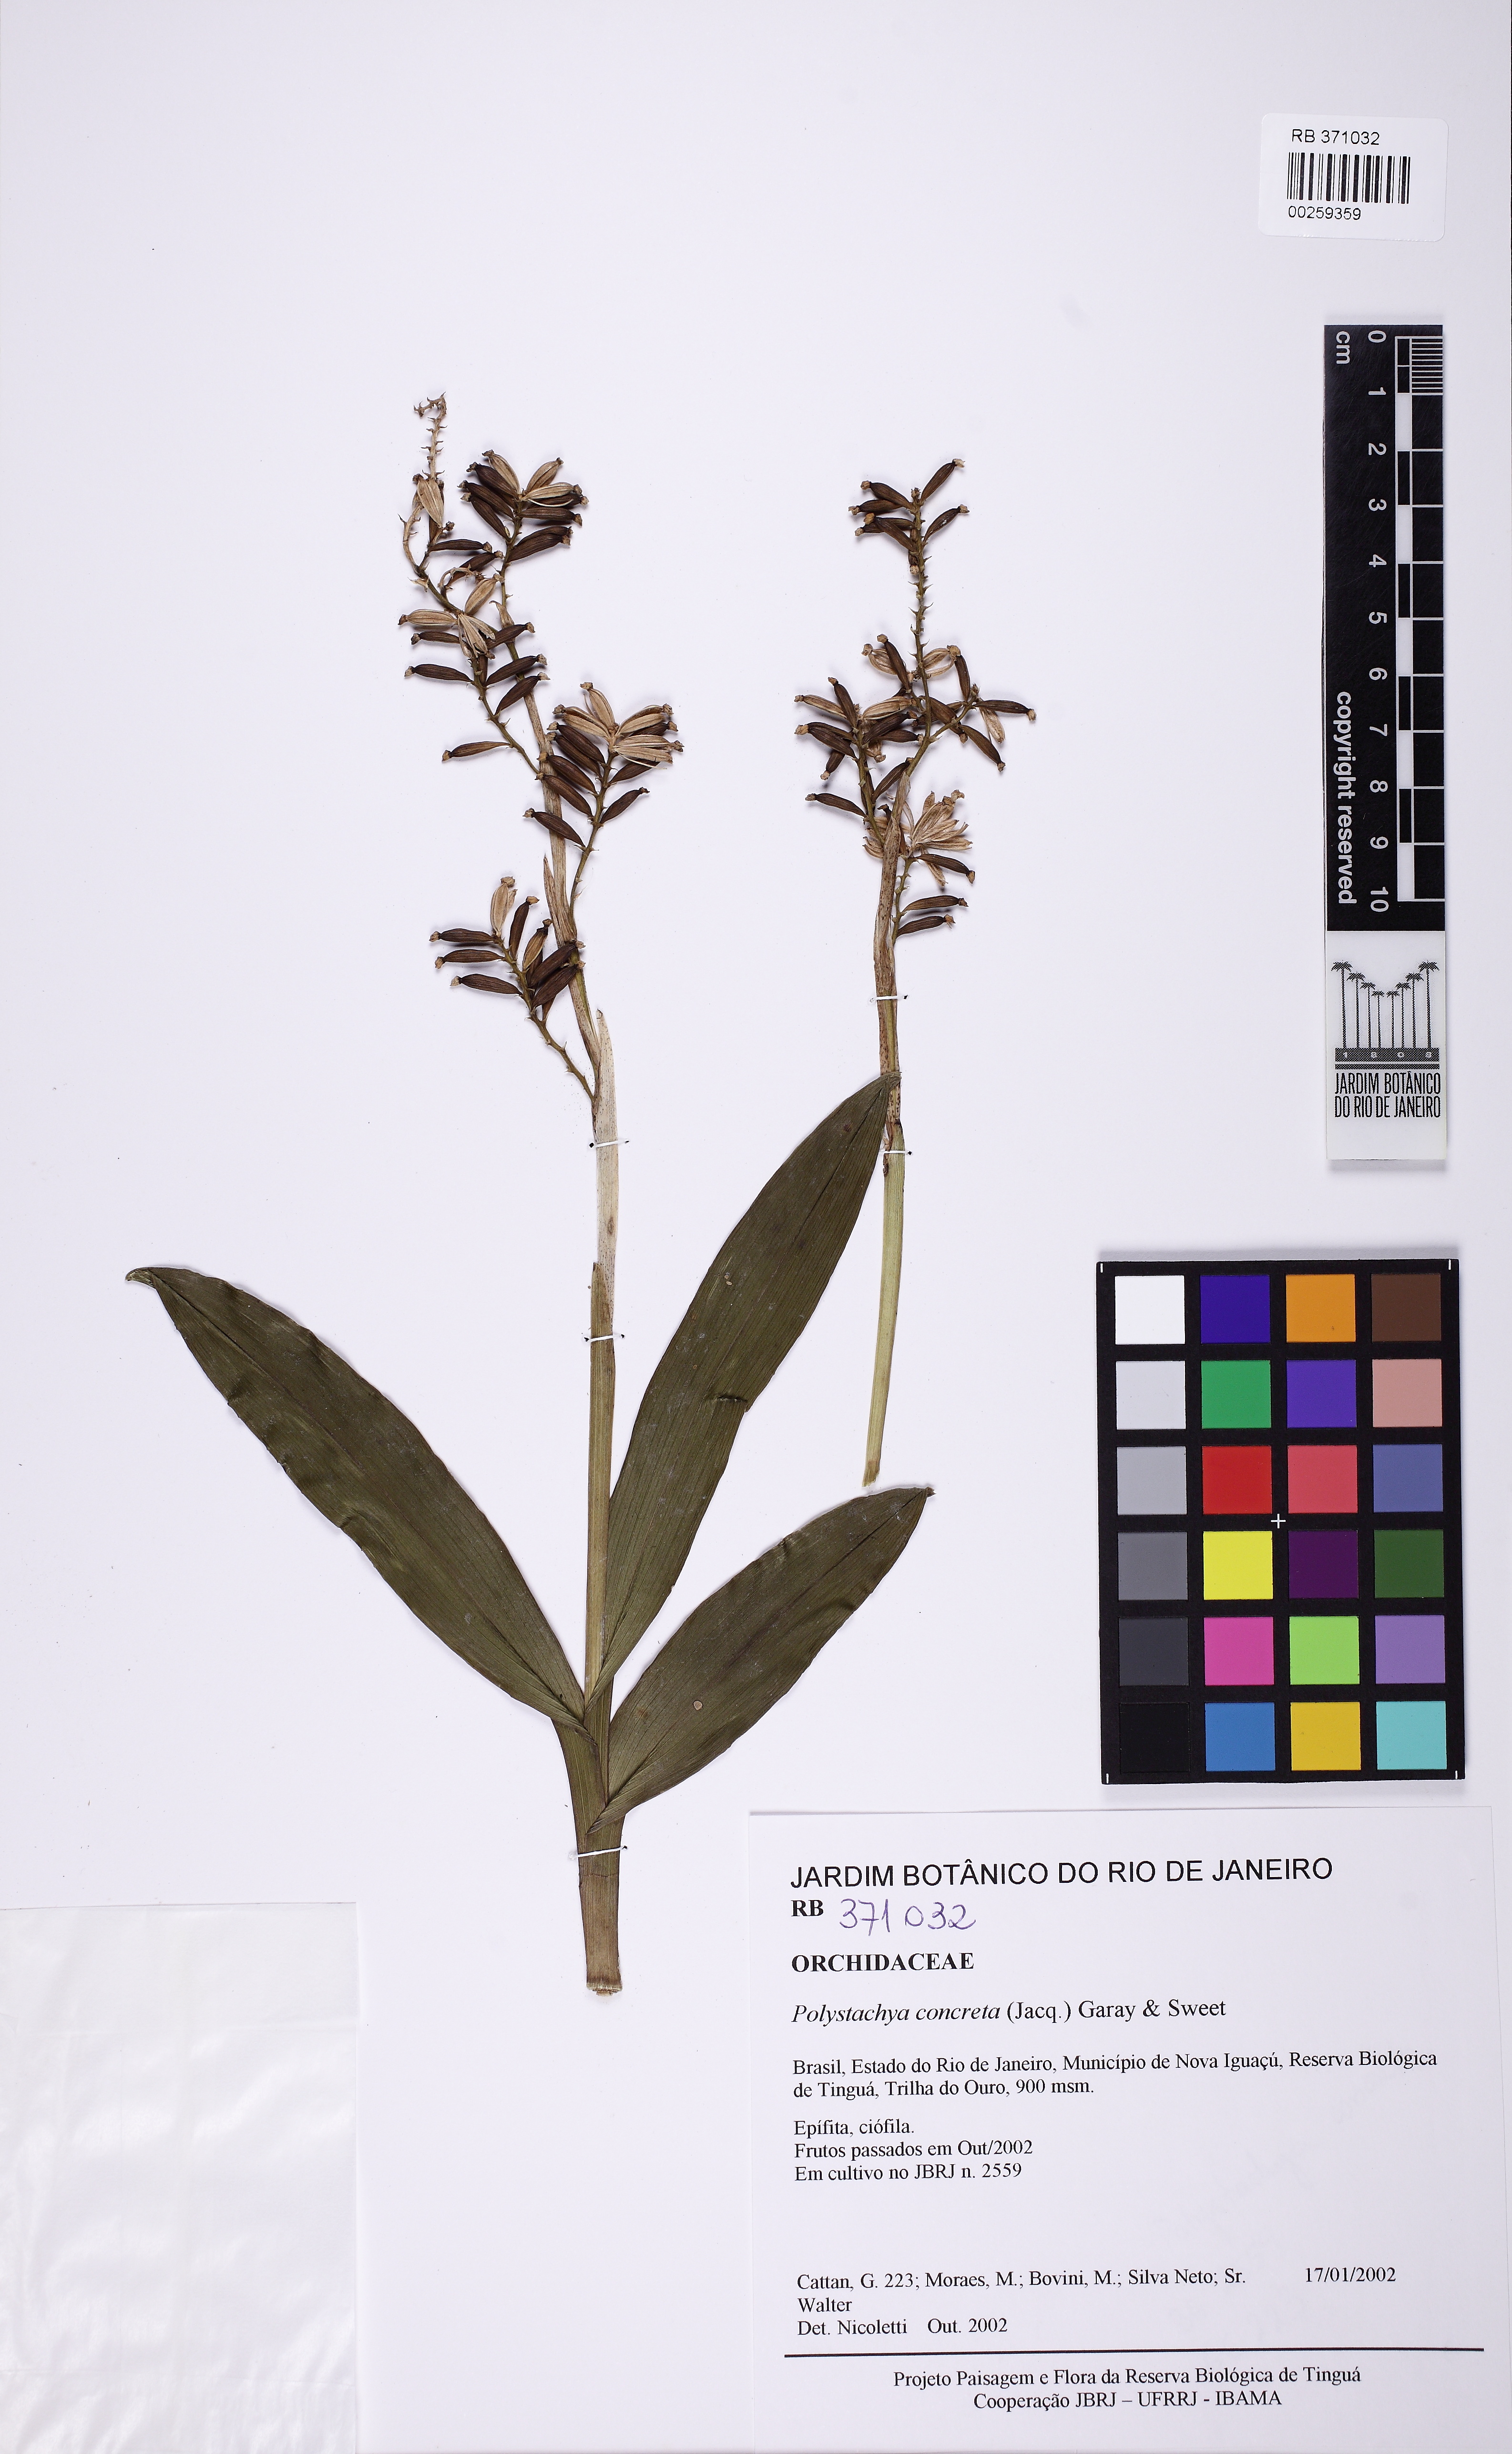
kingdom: Plantae
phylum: Tracheophyta
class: Liliopsida
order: Asparagales
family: Orchidaceae
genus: Polystachya
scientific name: Polystachya concreta
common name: Greater yellowspike orchid
